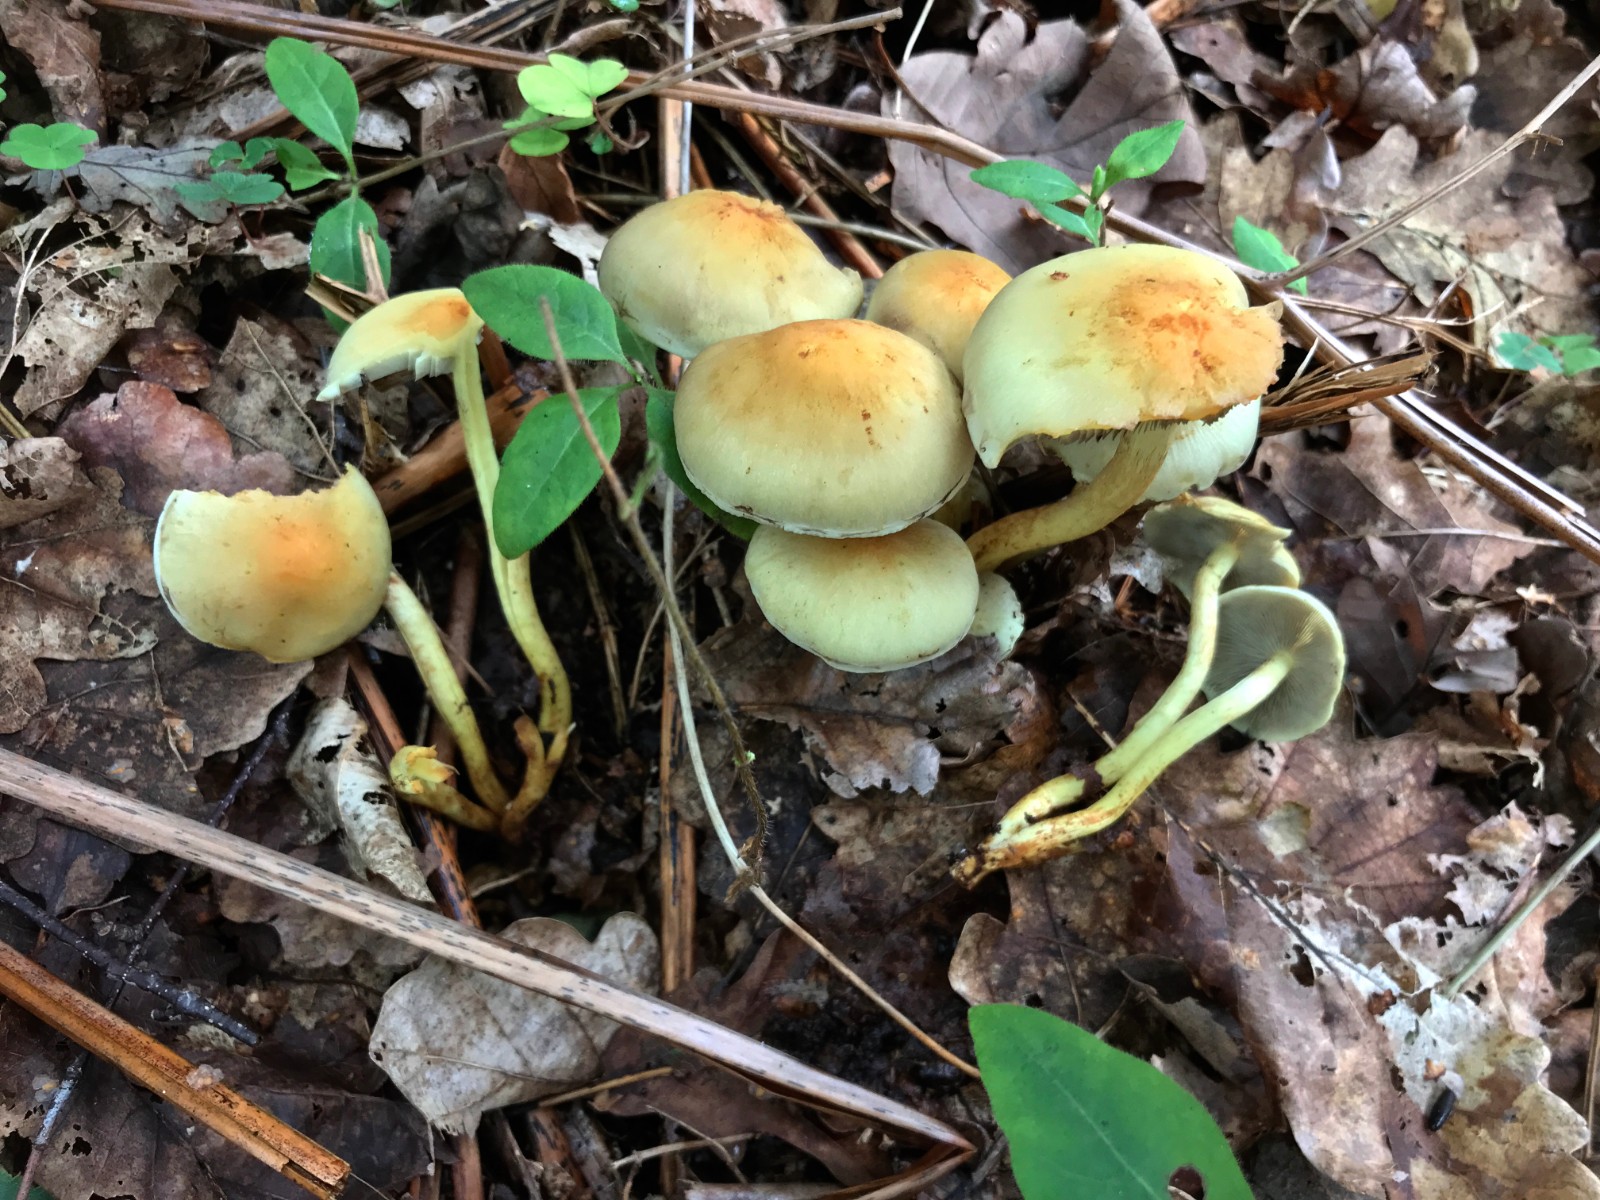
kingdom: Fungi
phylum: Basidiomycota
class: Agaricomycetes
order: Agaricales
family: Strophariaceae
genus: Hypholoma
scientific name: Hypholoma fasciculare
